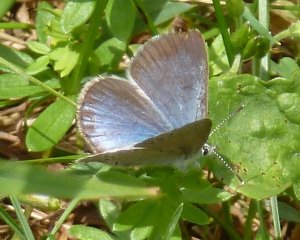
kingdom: Animalia
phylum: Arthropoda
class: Insecta
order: Lepidoptera
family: Lycaenidae
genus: Glaucopsyche
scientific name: Glaucopsyche lygdamus
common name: Silvery Blue
